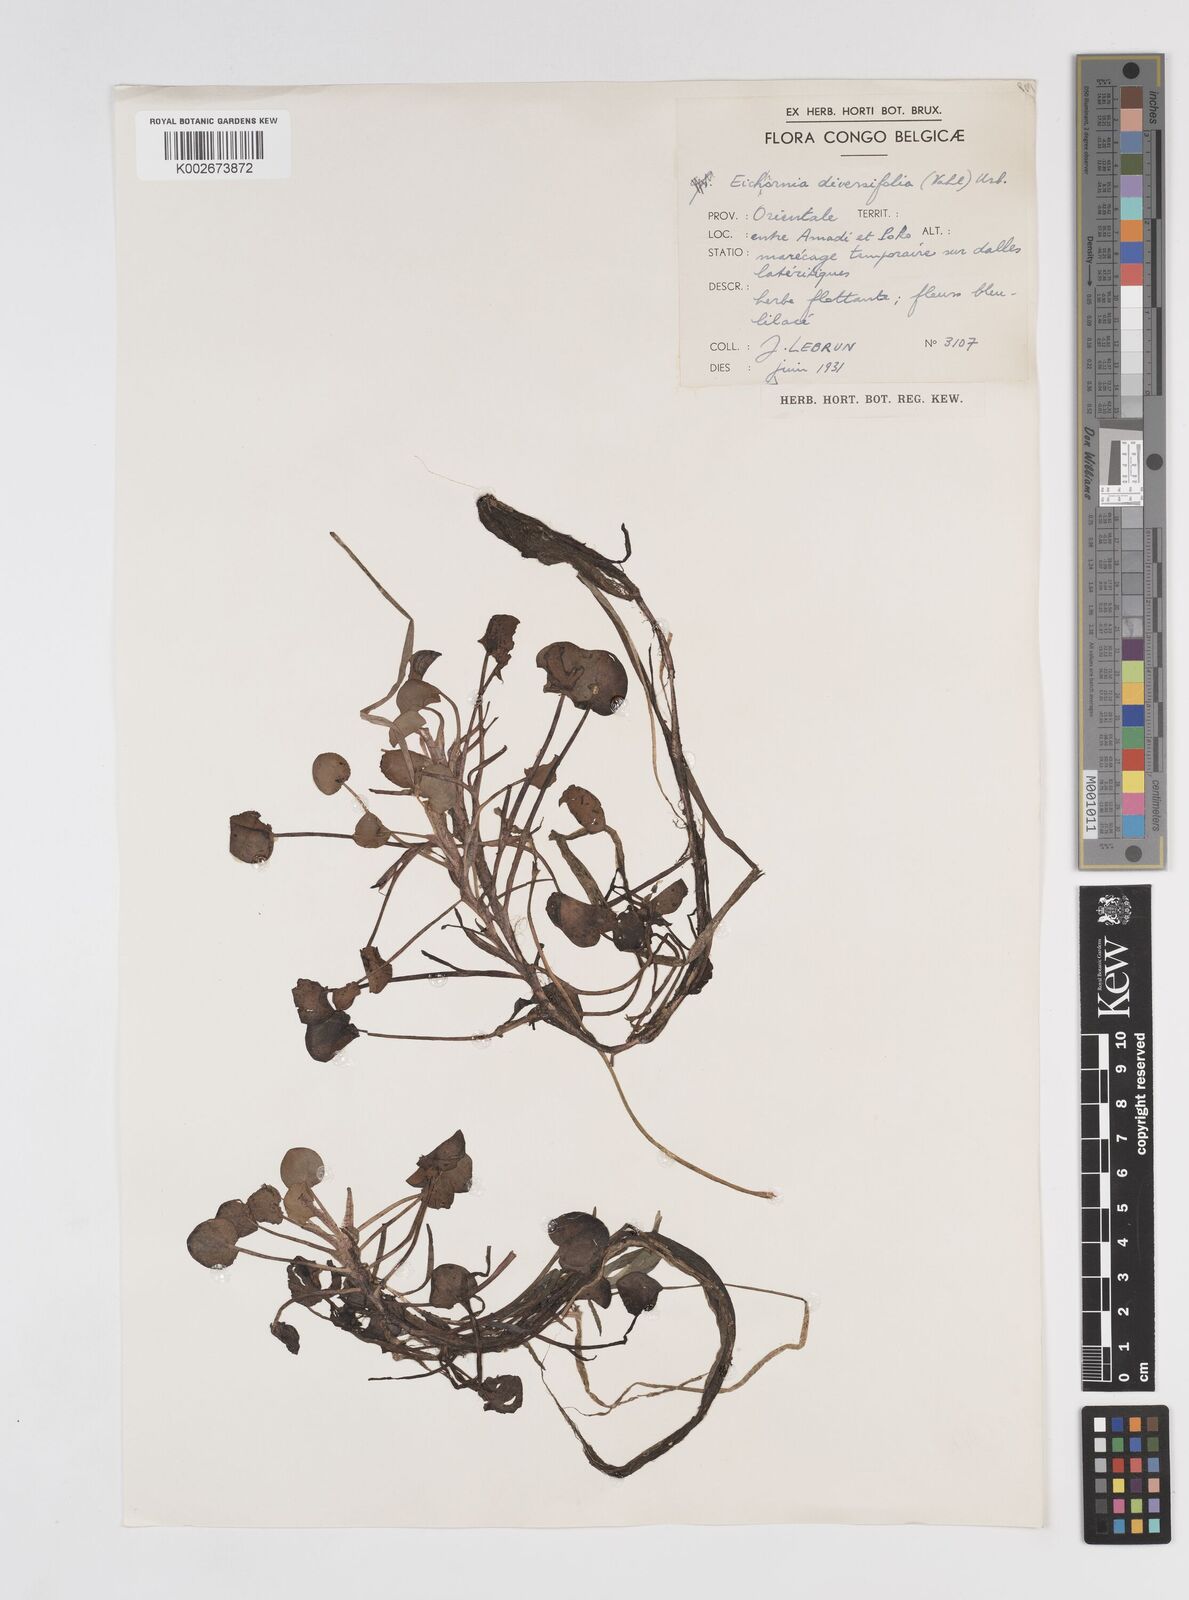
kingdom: Plantae
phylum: Tracheophyta
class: Liliopsida
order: Commelinales
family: Pontederiaceae
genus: Pontederia
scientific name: Pontederia natans
